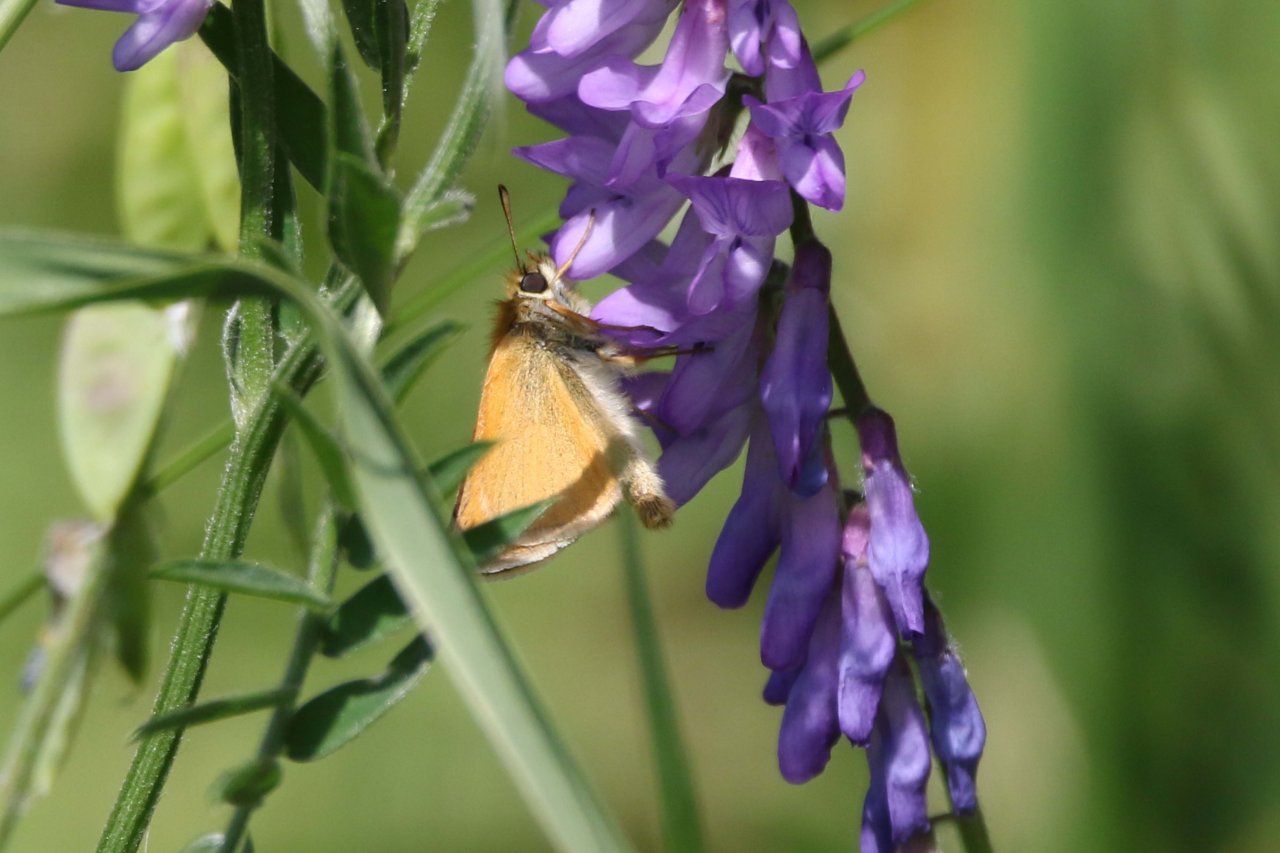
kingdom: Animalia
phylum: Arthropoda
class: Insecta
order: Lepidoptera
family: Hesperiidae
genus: Thymelicus
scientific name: Thymelicus lineola
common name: European Skipper
